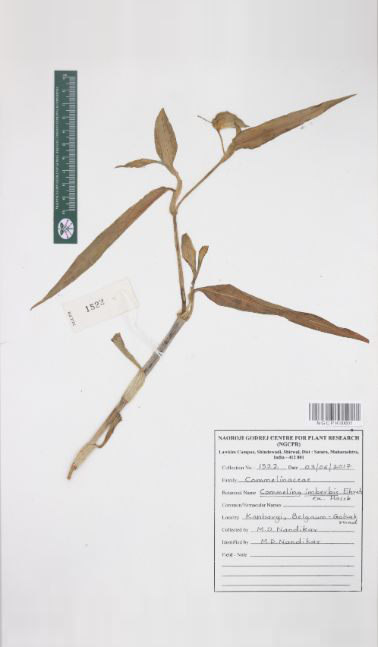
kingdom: Plantae
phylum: Tracheophyta
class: Liliopsida
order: Commelinales
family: Commelinaceae
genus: Commelina
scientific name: Commelina imberbis
